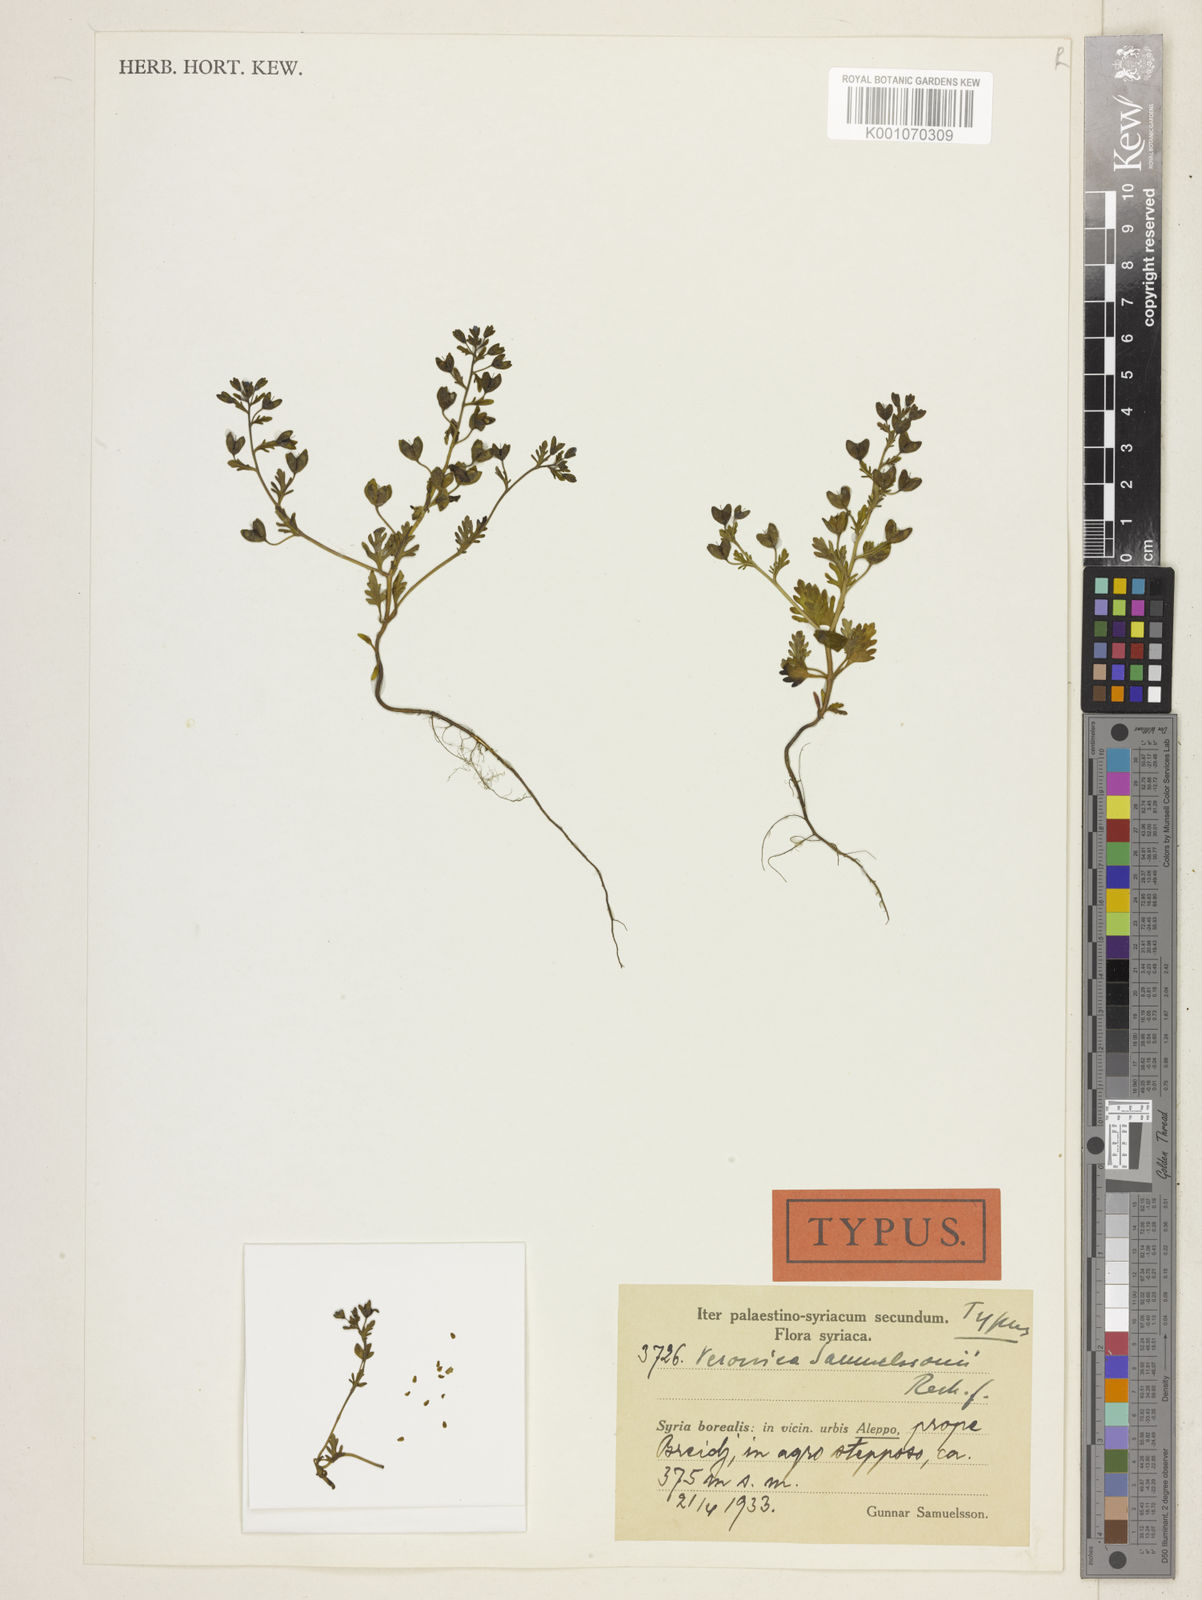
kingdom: Plantae
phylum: Tracheophyta
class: Magnoliopsida
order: Lamiales
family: Plantaginaceae
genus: Veronica
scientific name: Veronica samuelssonii
